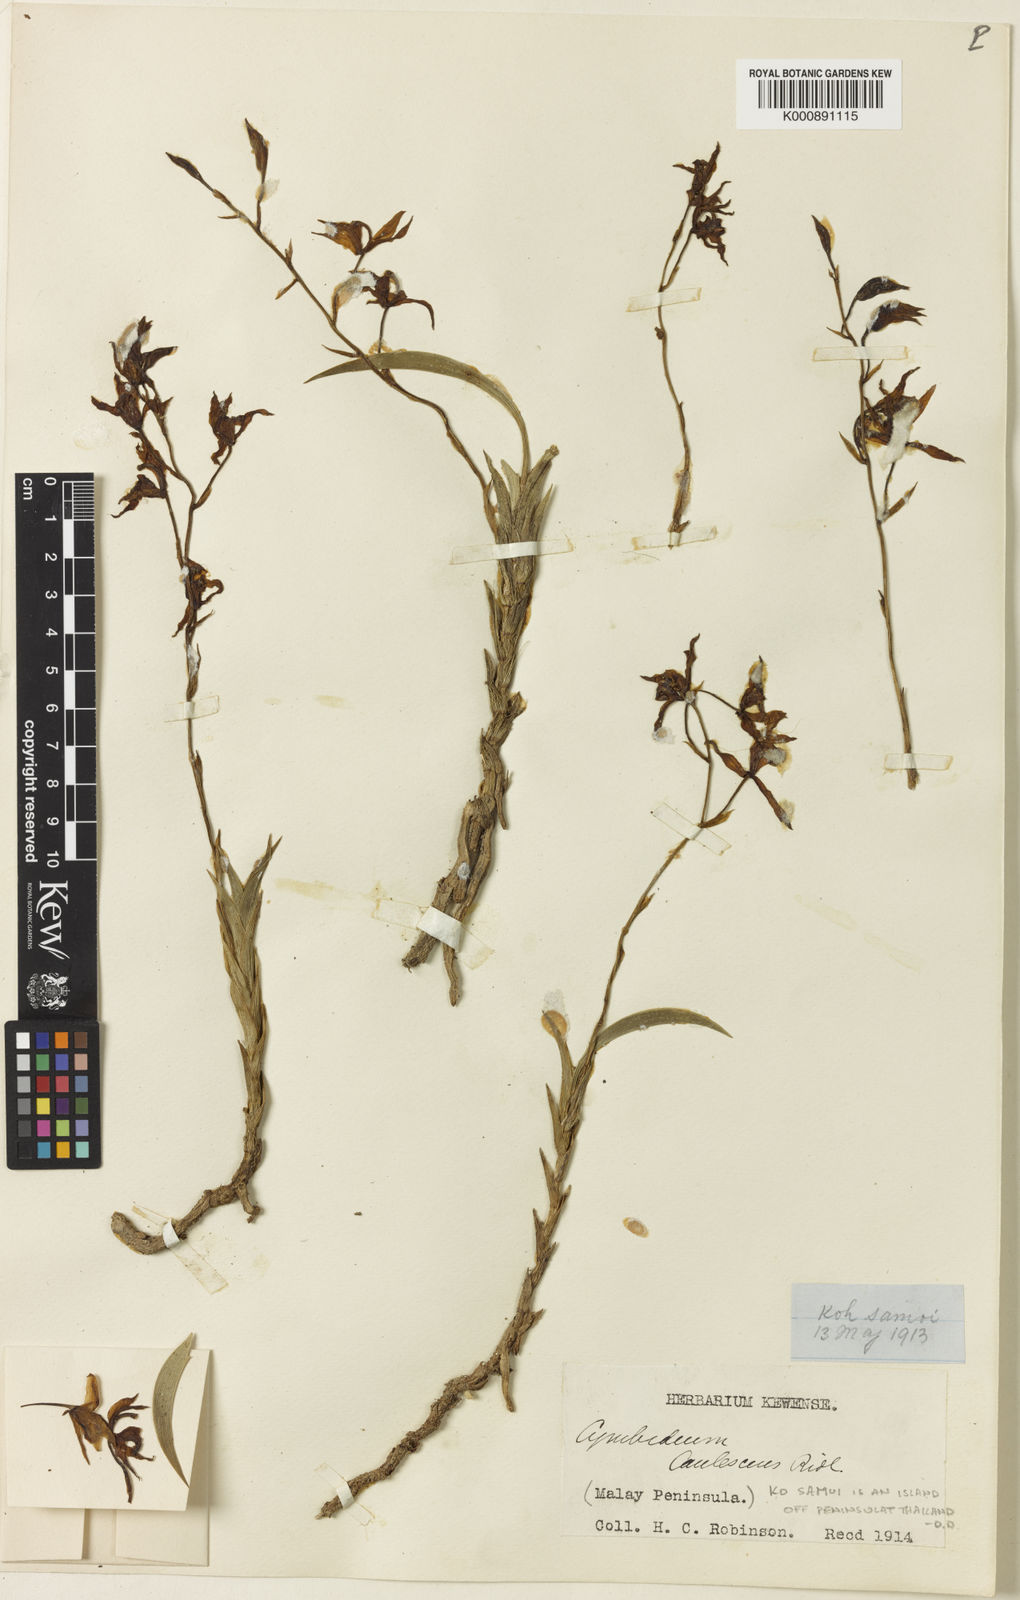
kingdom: Plantae
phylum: Tracheophyta
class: Liliopsida
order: Asparagales
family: Orchidaceae
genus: Cymbidium
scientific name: Cymbidium lancifolium
